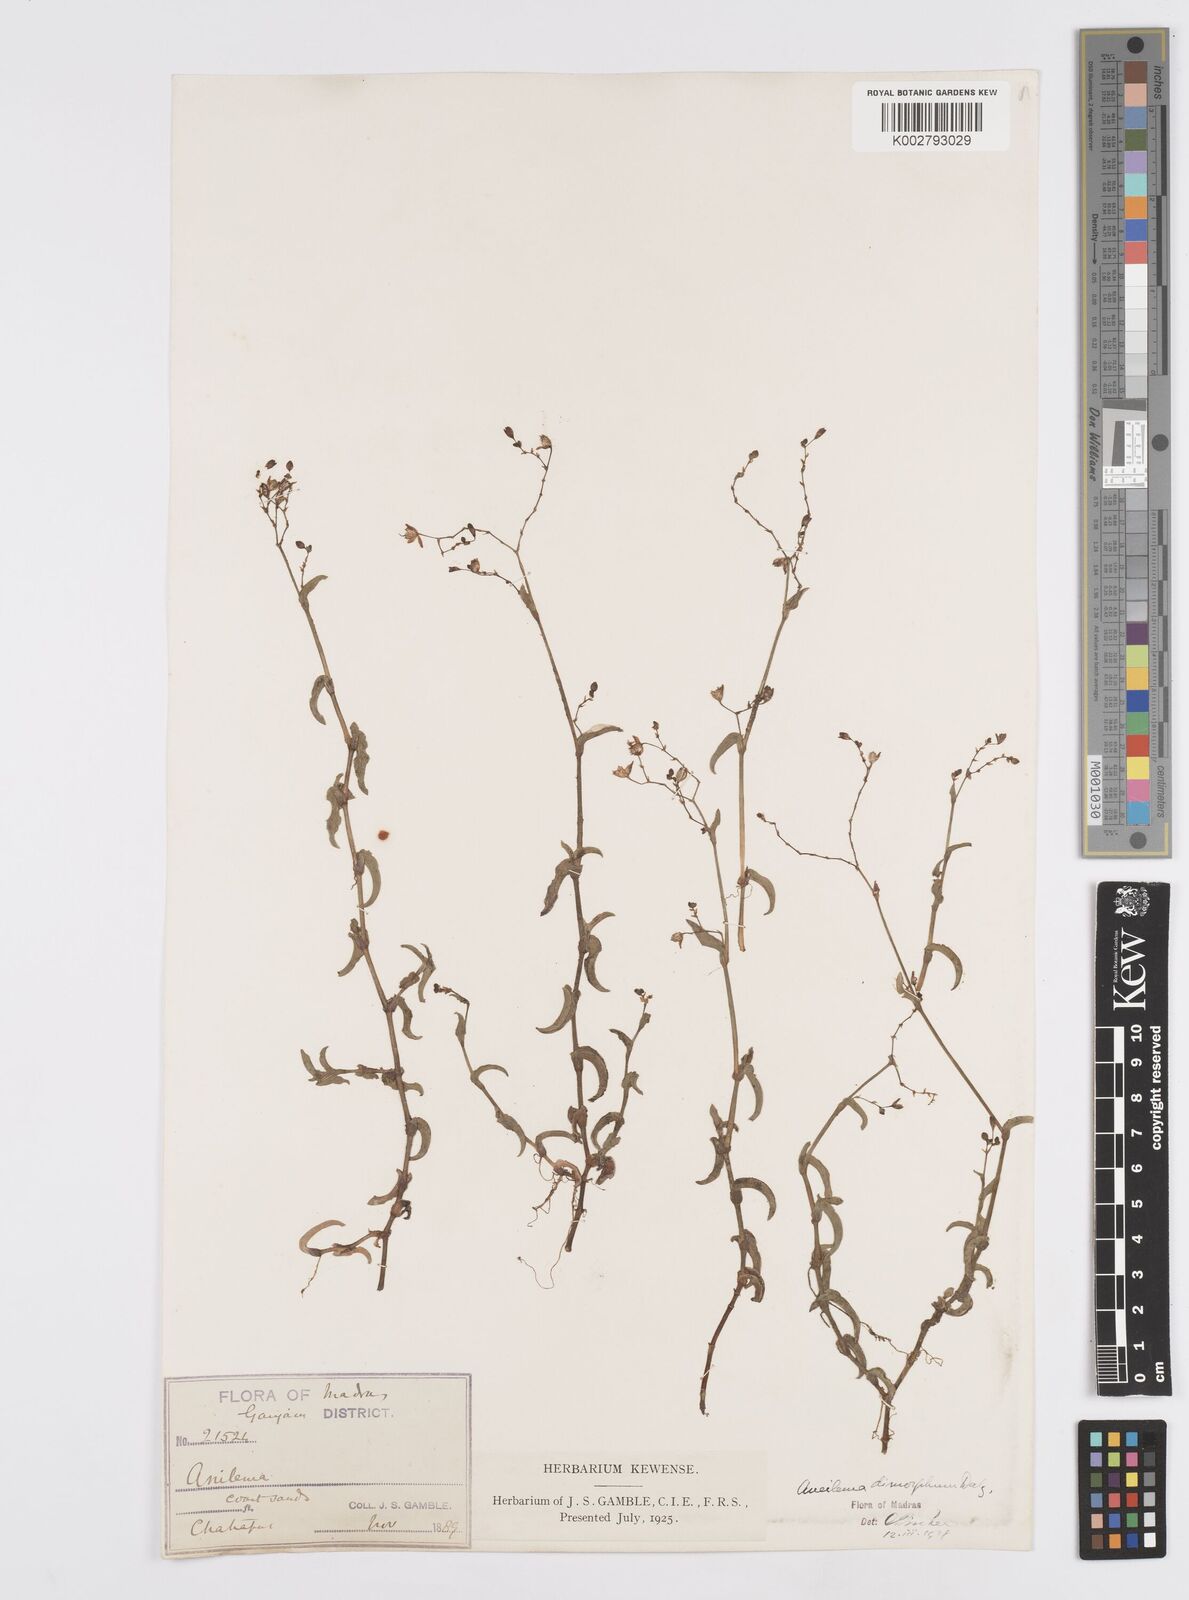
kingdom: Plantae
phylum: Tracheophyta
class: Liliopsida
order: Commelinales
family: Commelinaceae
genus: Murdannia
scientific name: Murdannia dimorpha
